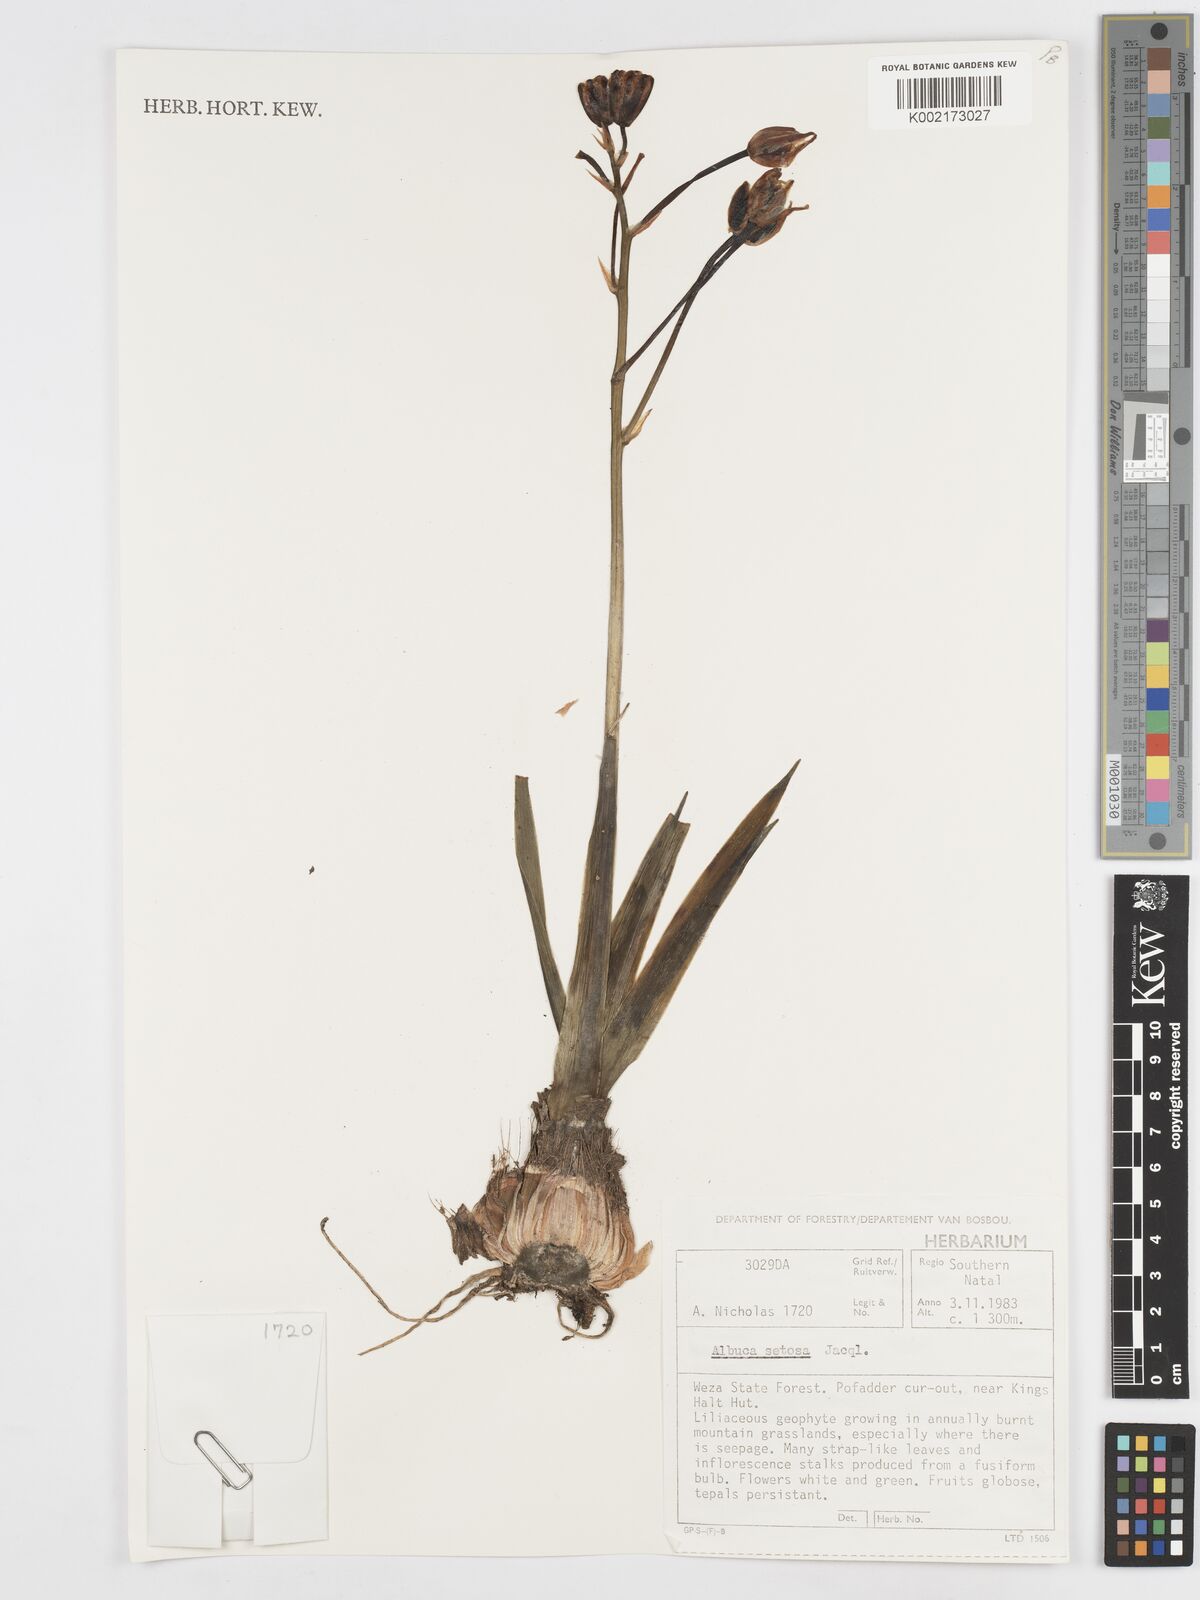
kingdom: Plantae
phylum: Tracheophyta
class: Liliopsida
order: Asparagales
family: Asparagaceae
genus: Albuca
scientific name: Albuca setosa
